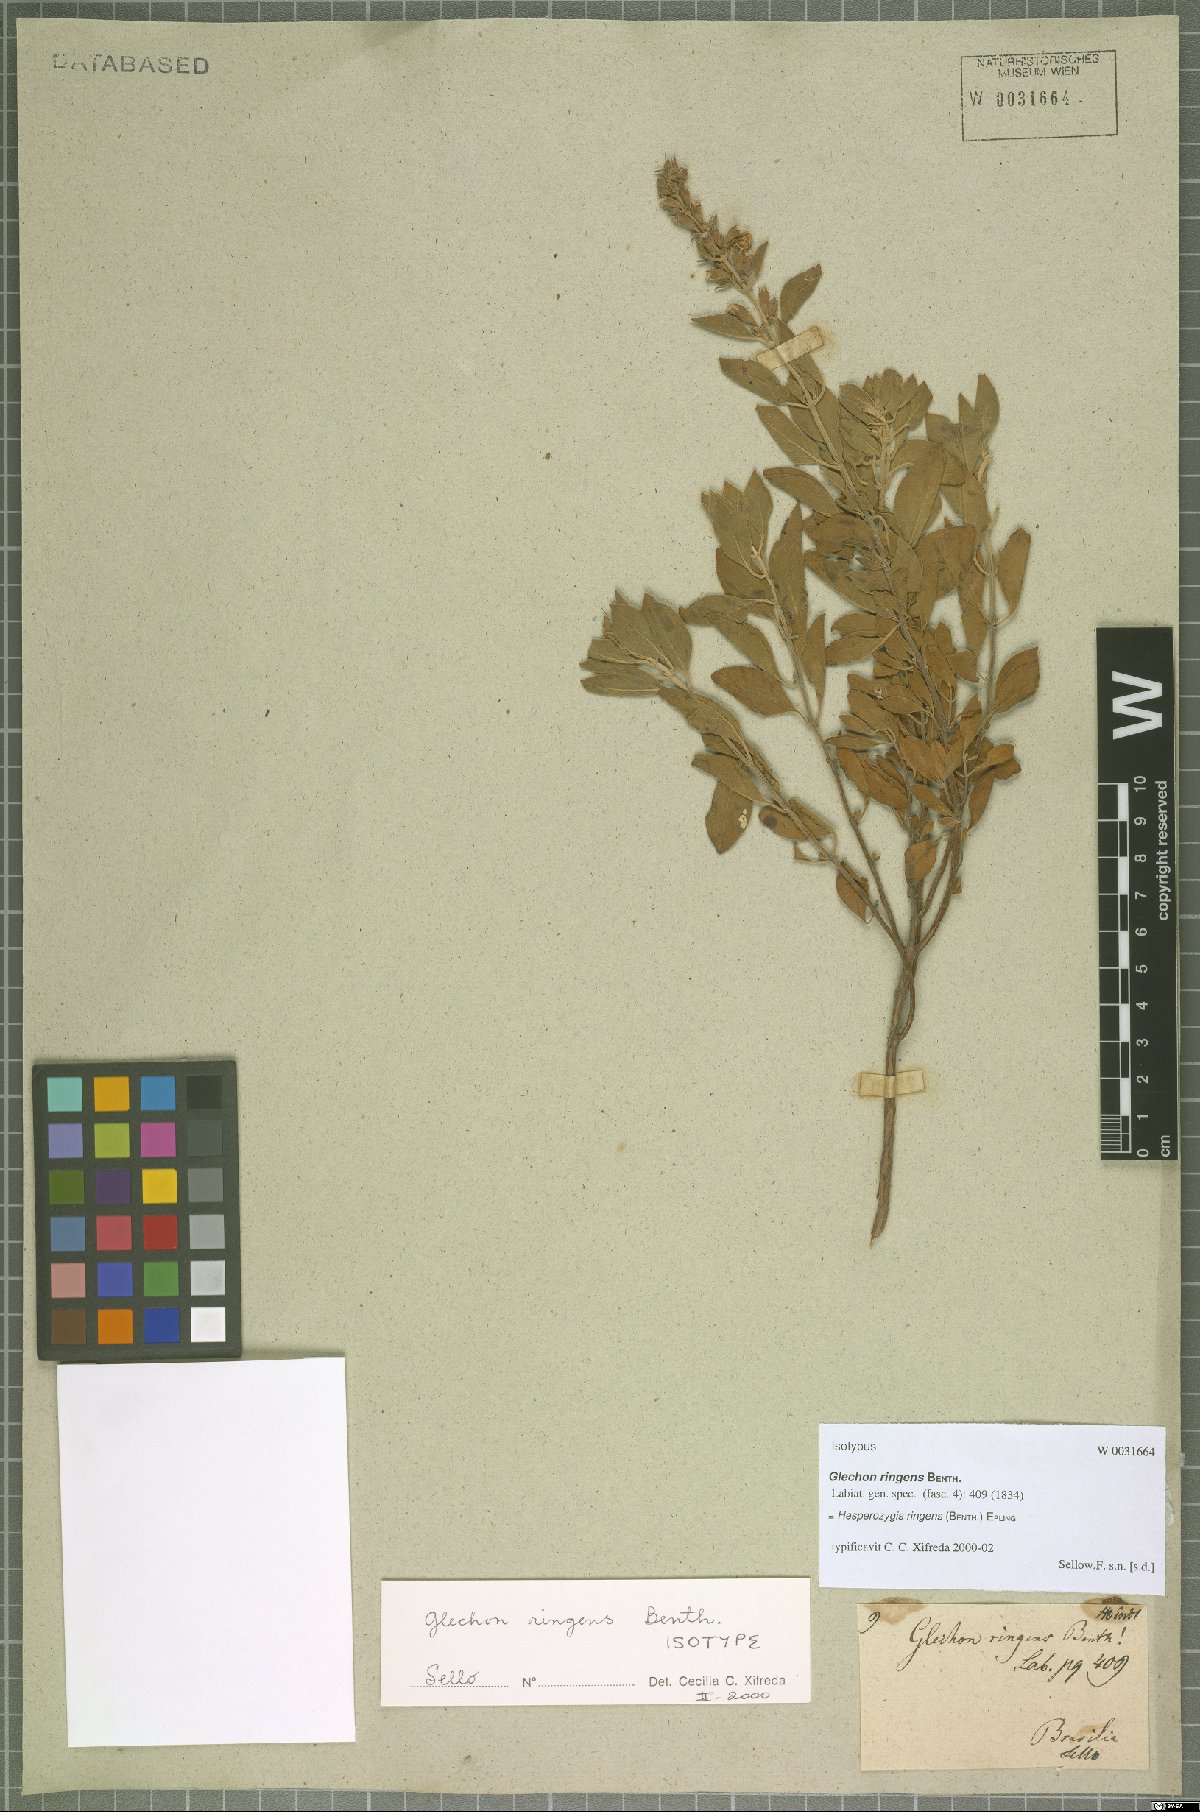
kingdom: Plantae
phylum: Tracheophyta
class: Magnoliopsida
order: Lamiales
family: Lamiaceae
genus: Hesperozygis
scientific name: Hesperozygis ringens
